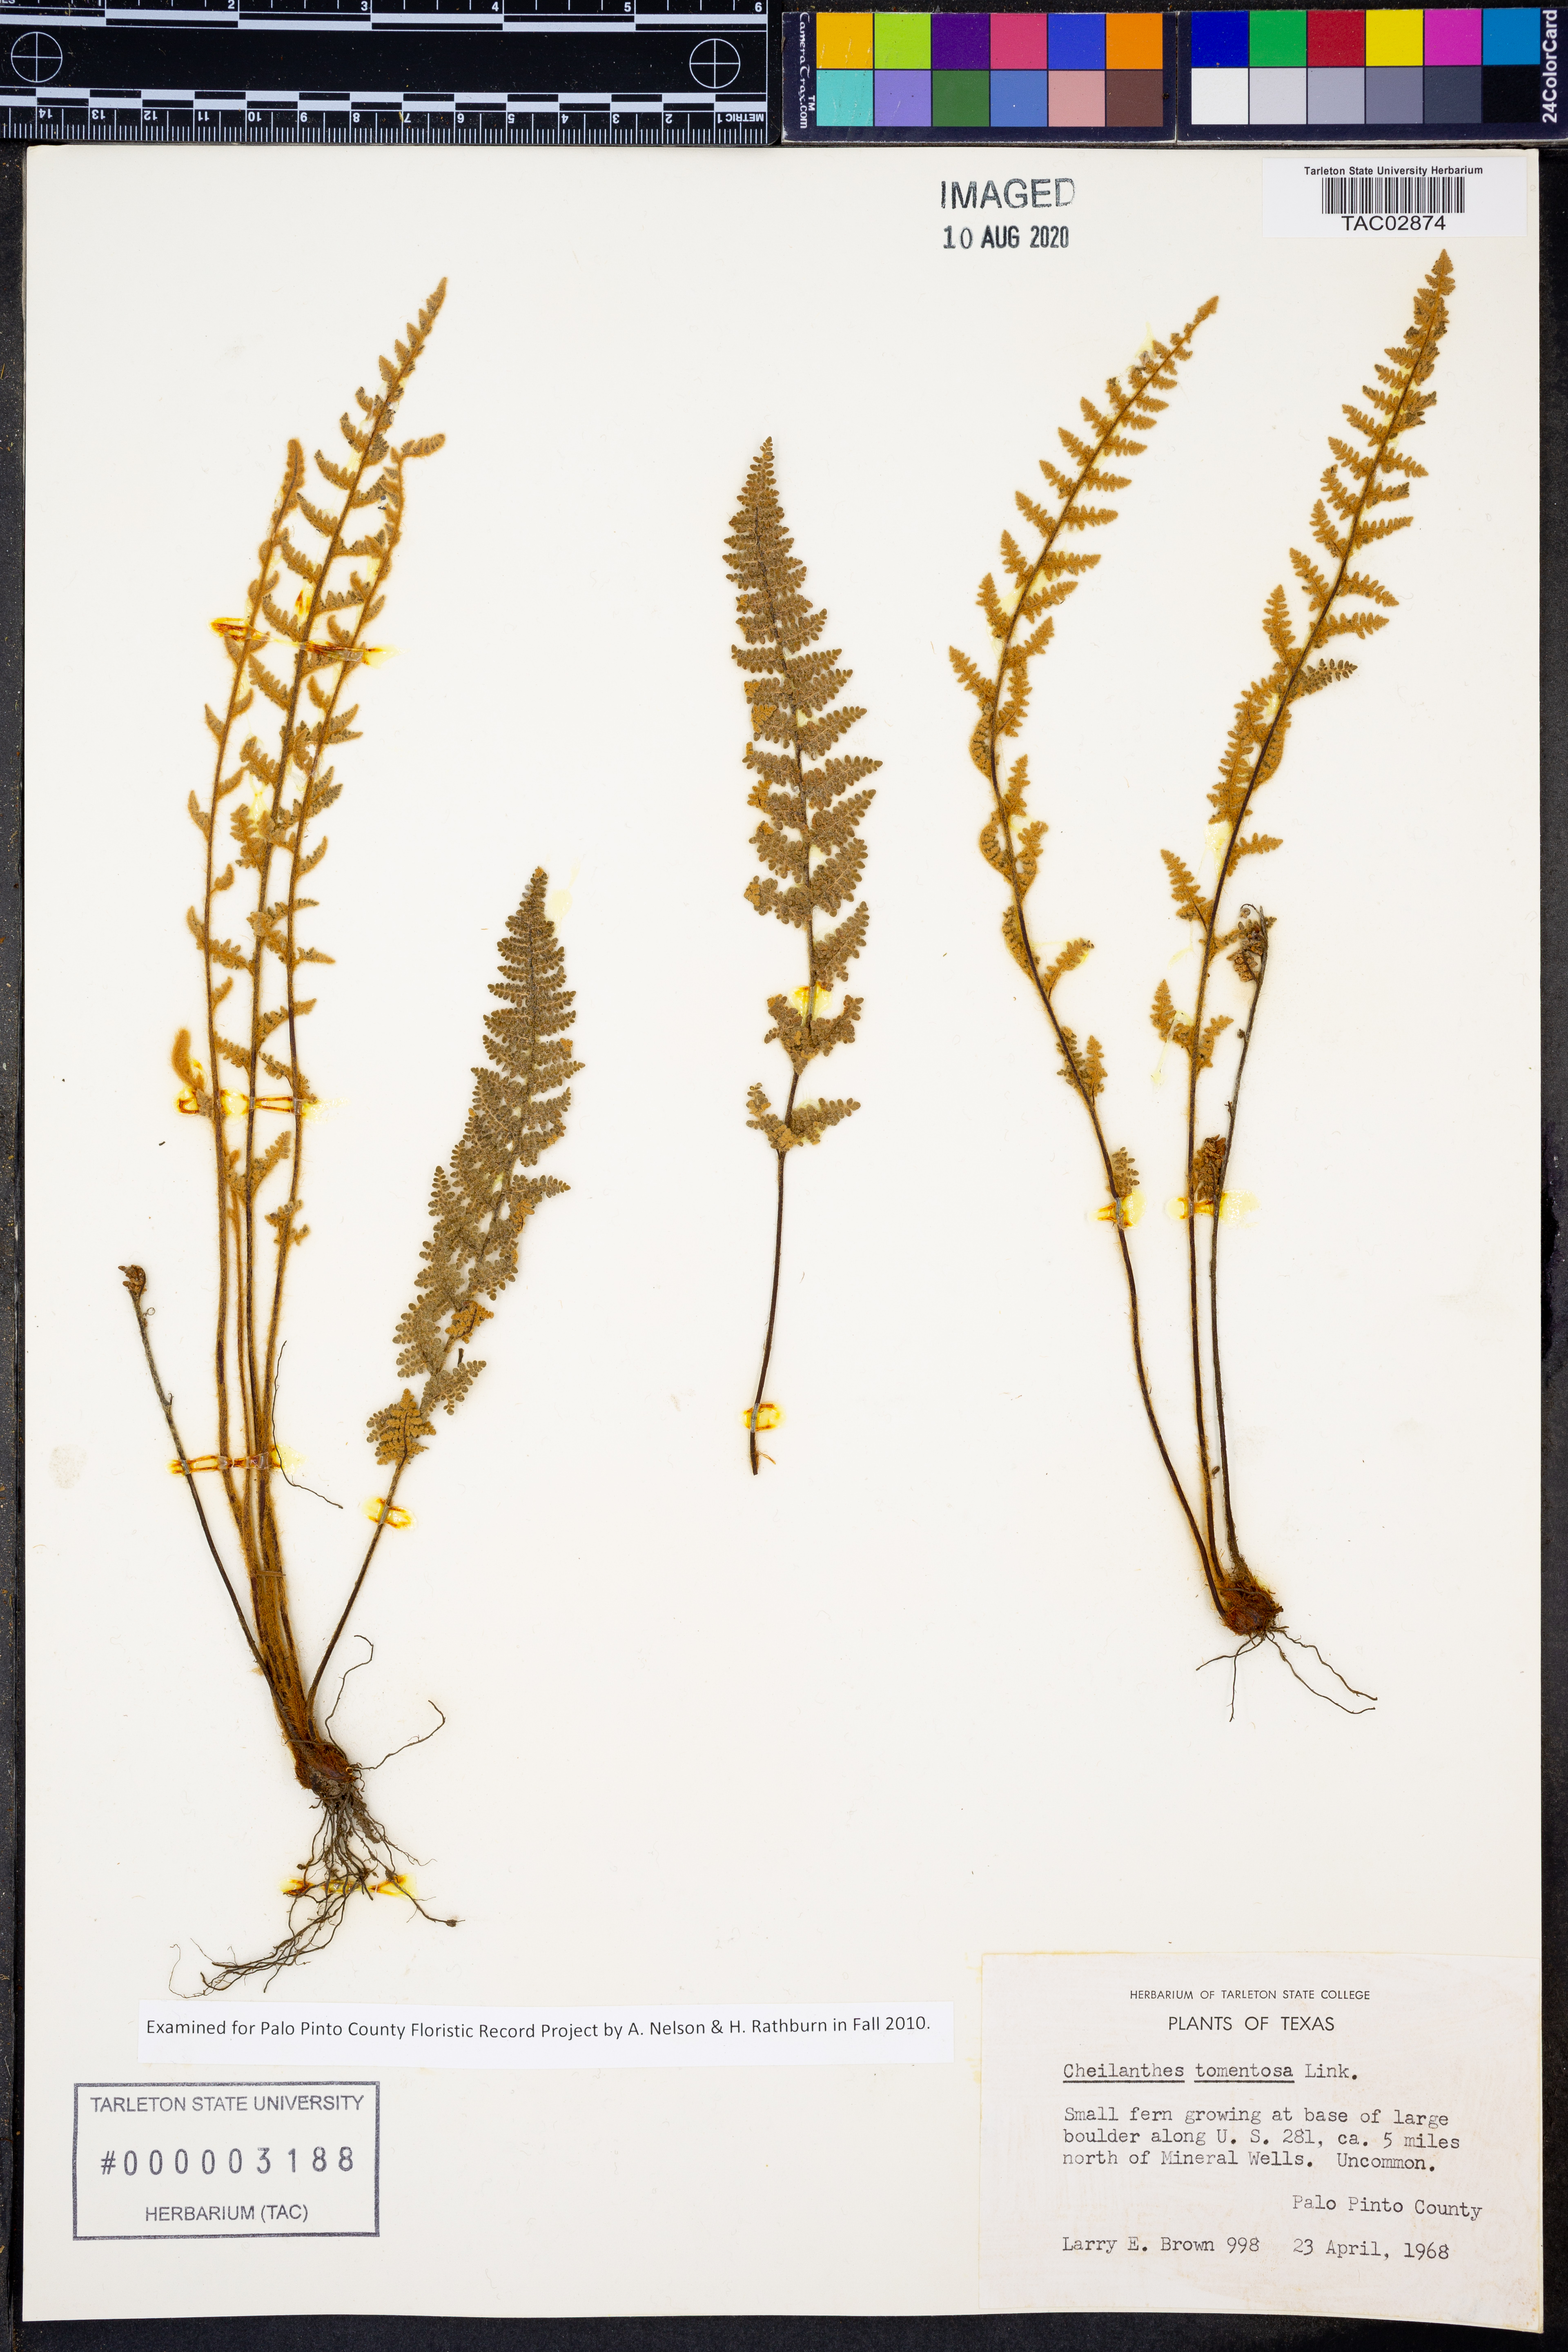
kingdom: Plantae
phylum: Tracheophyta
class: Polypodiopsida
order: Polypodiales
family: Pteridaceae
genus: Myriopteris
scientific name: Myriopteris tomentosa
